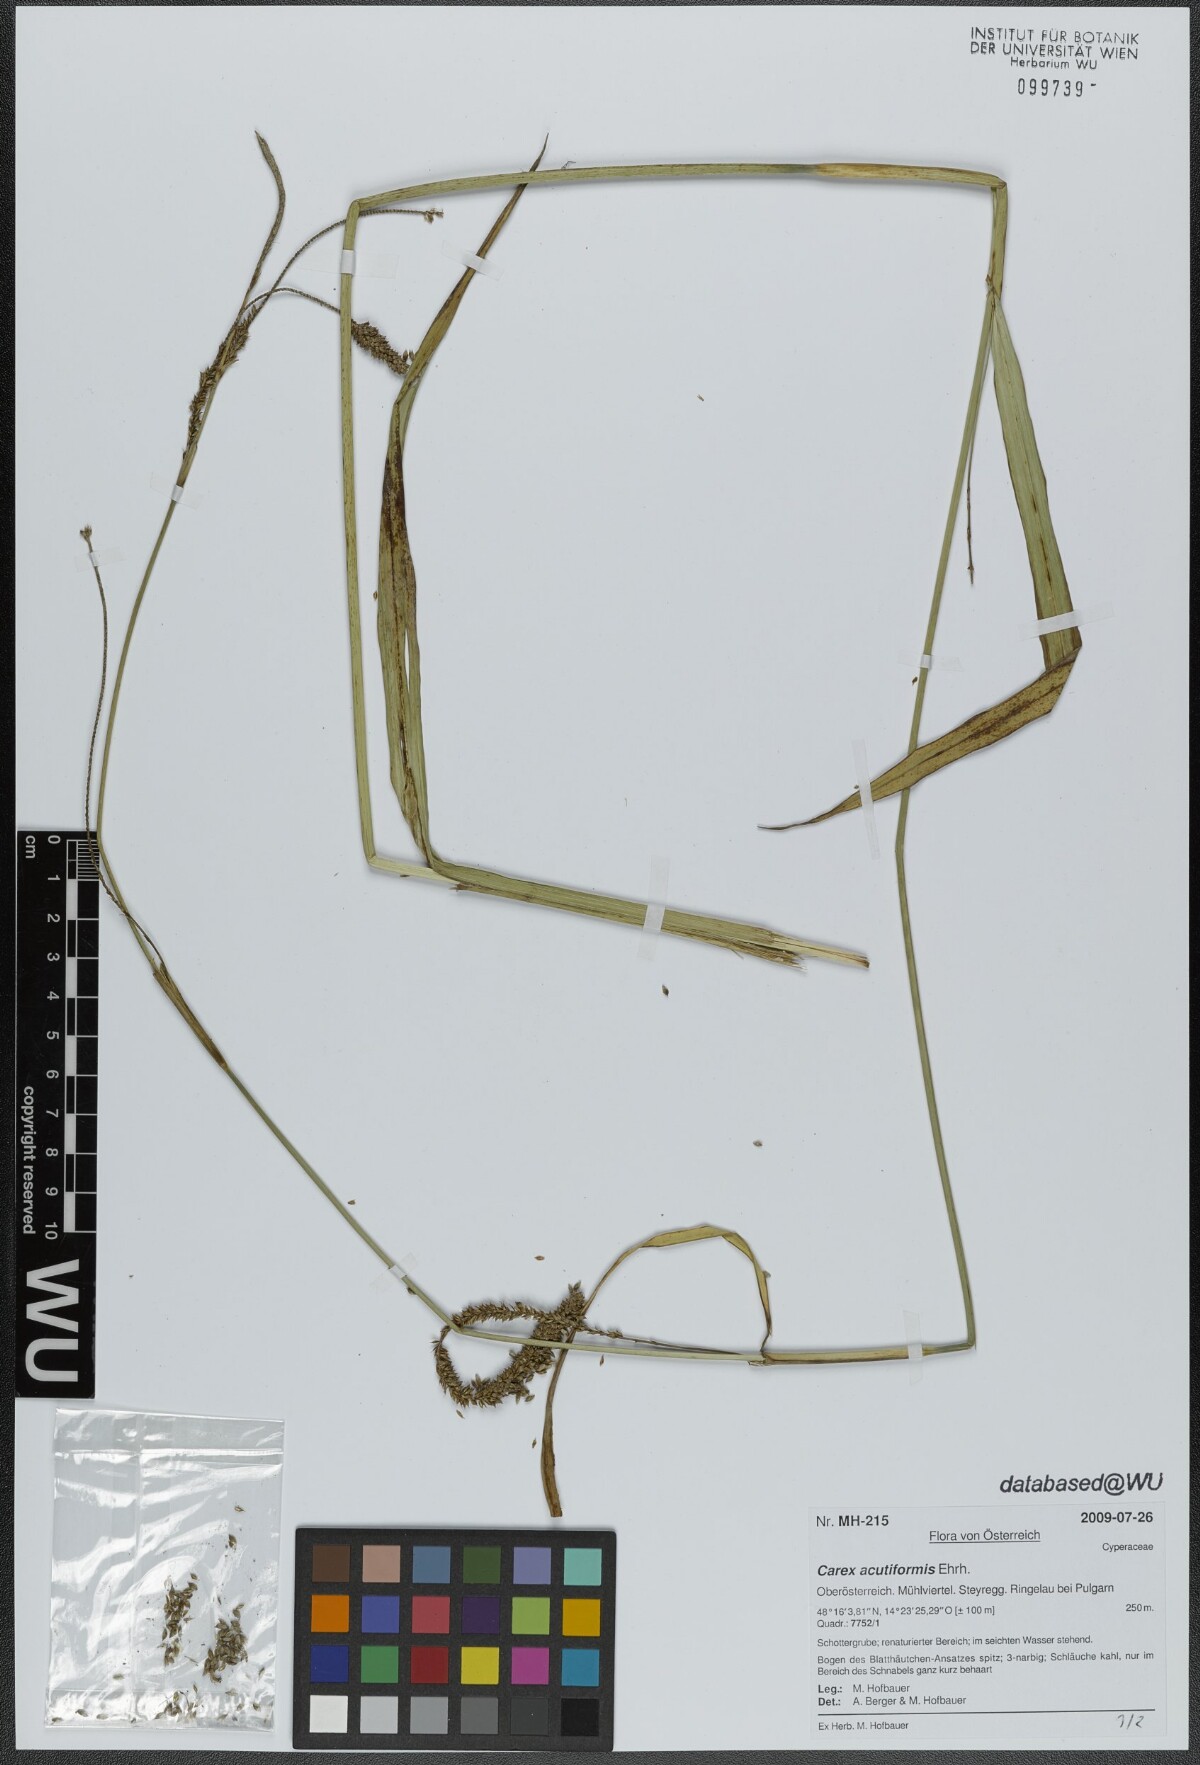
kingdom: Plantae
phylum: Tracheophyta
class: Liliopsida
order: Poales
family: Cyperaceae
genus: Carex
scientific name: Carex acutiformis
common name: Lesser pond-sedge
